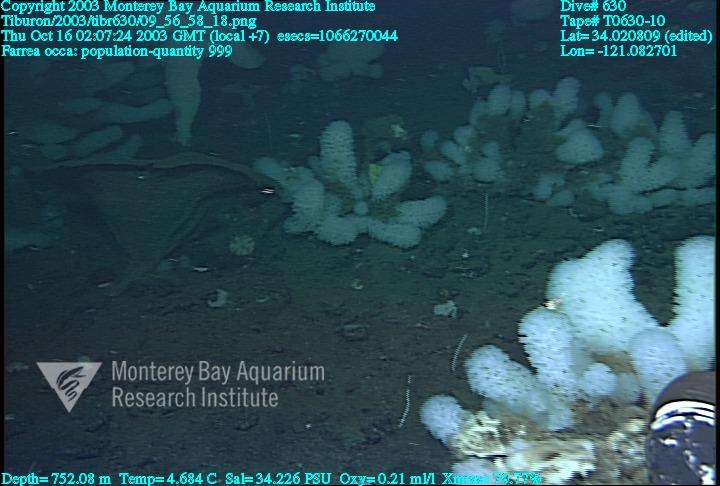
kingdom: Animalia
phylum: Porifera
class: Hexactinellida
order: Sceptrulophora
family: Farreidae
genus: Farrea
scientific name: Farrea occa
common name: Reversed glass sponge
